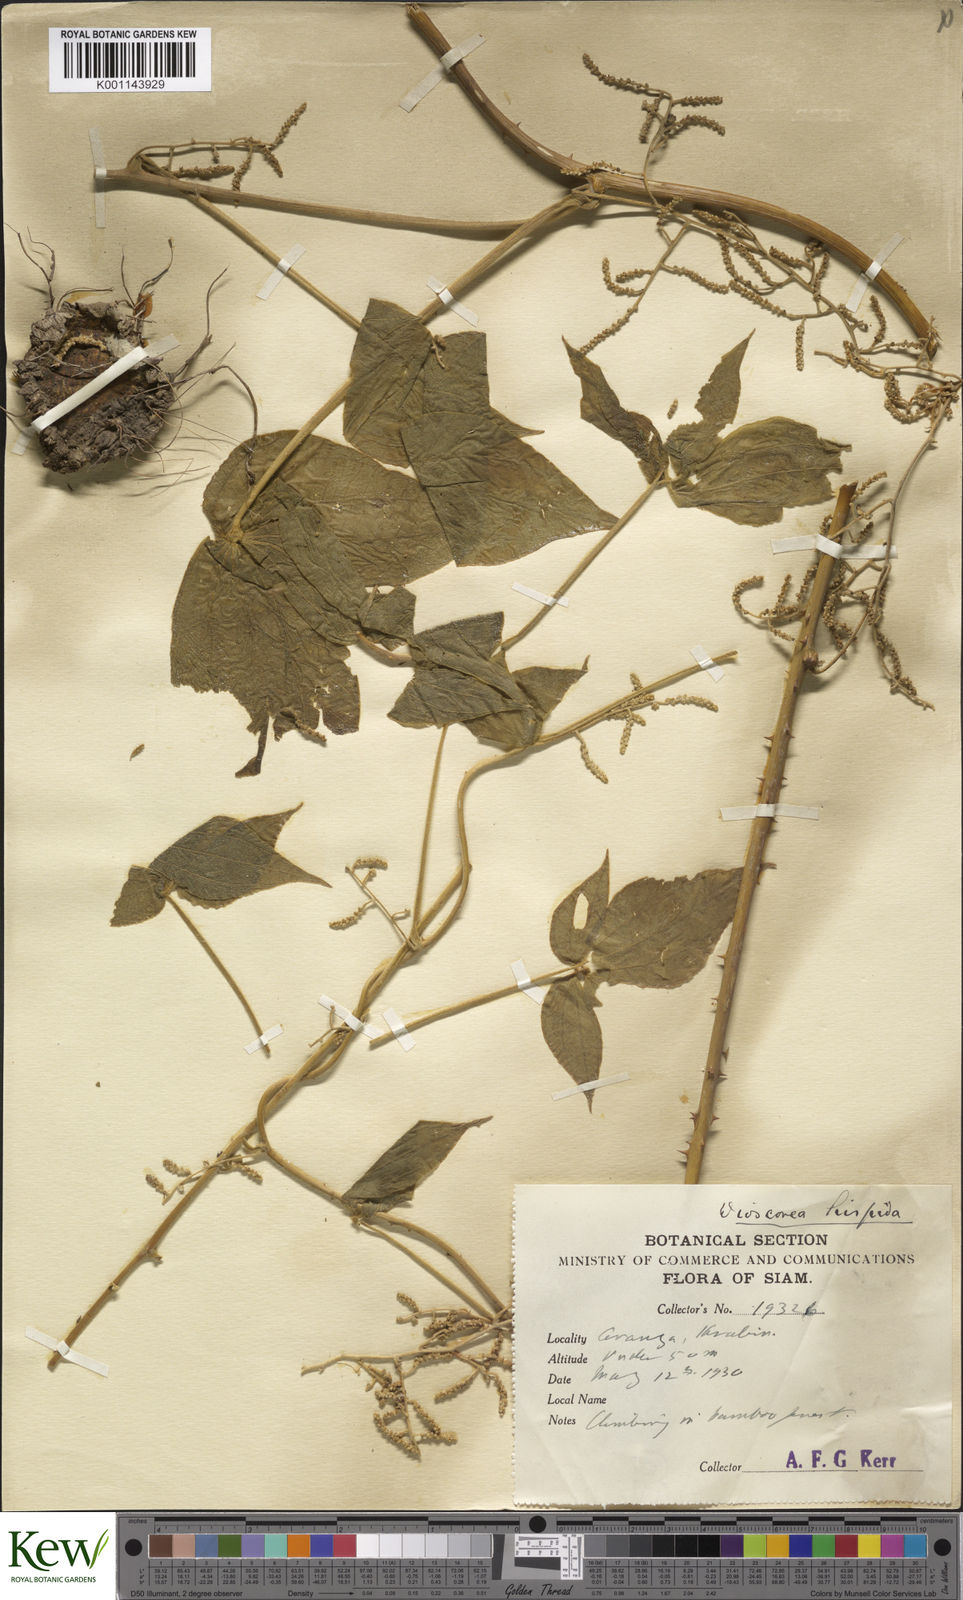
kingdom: Plantae
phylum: Tracheophyta
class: Liliopsida
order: Dioscoreales
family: Dioscoreaceae
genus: Dioscorea
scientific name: Dioscorea hispida
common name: Asiatic bitter yam
